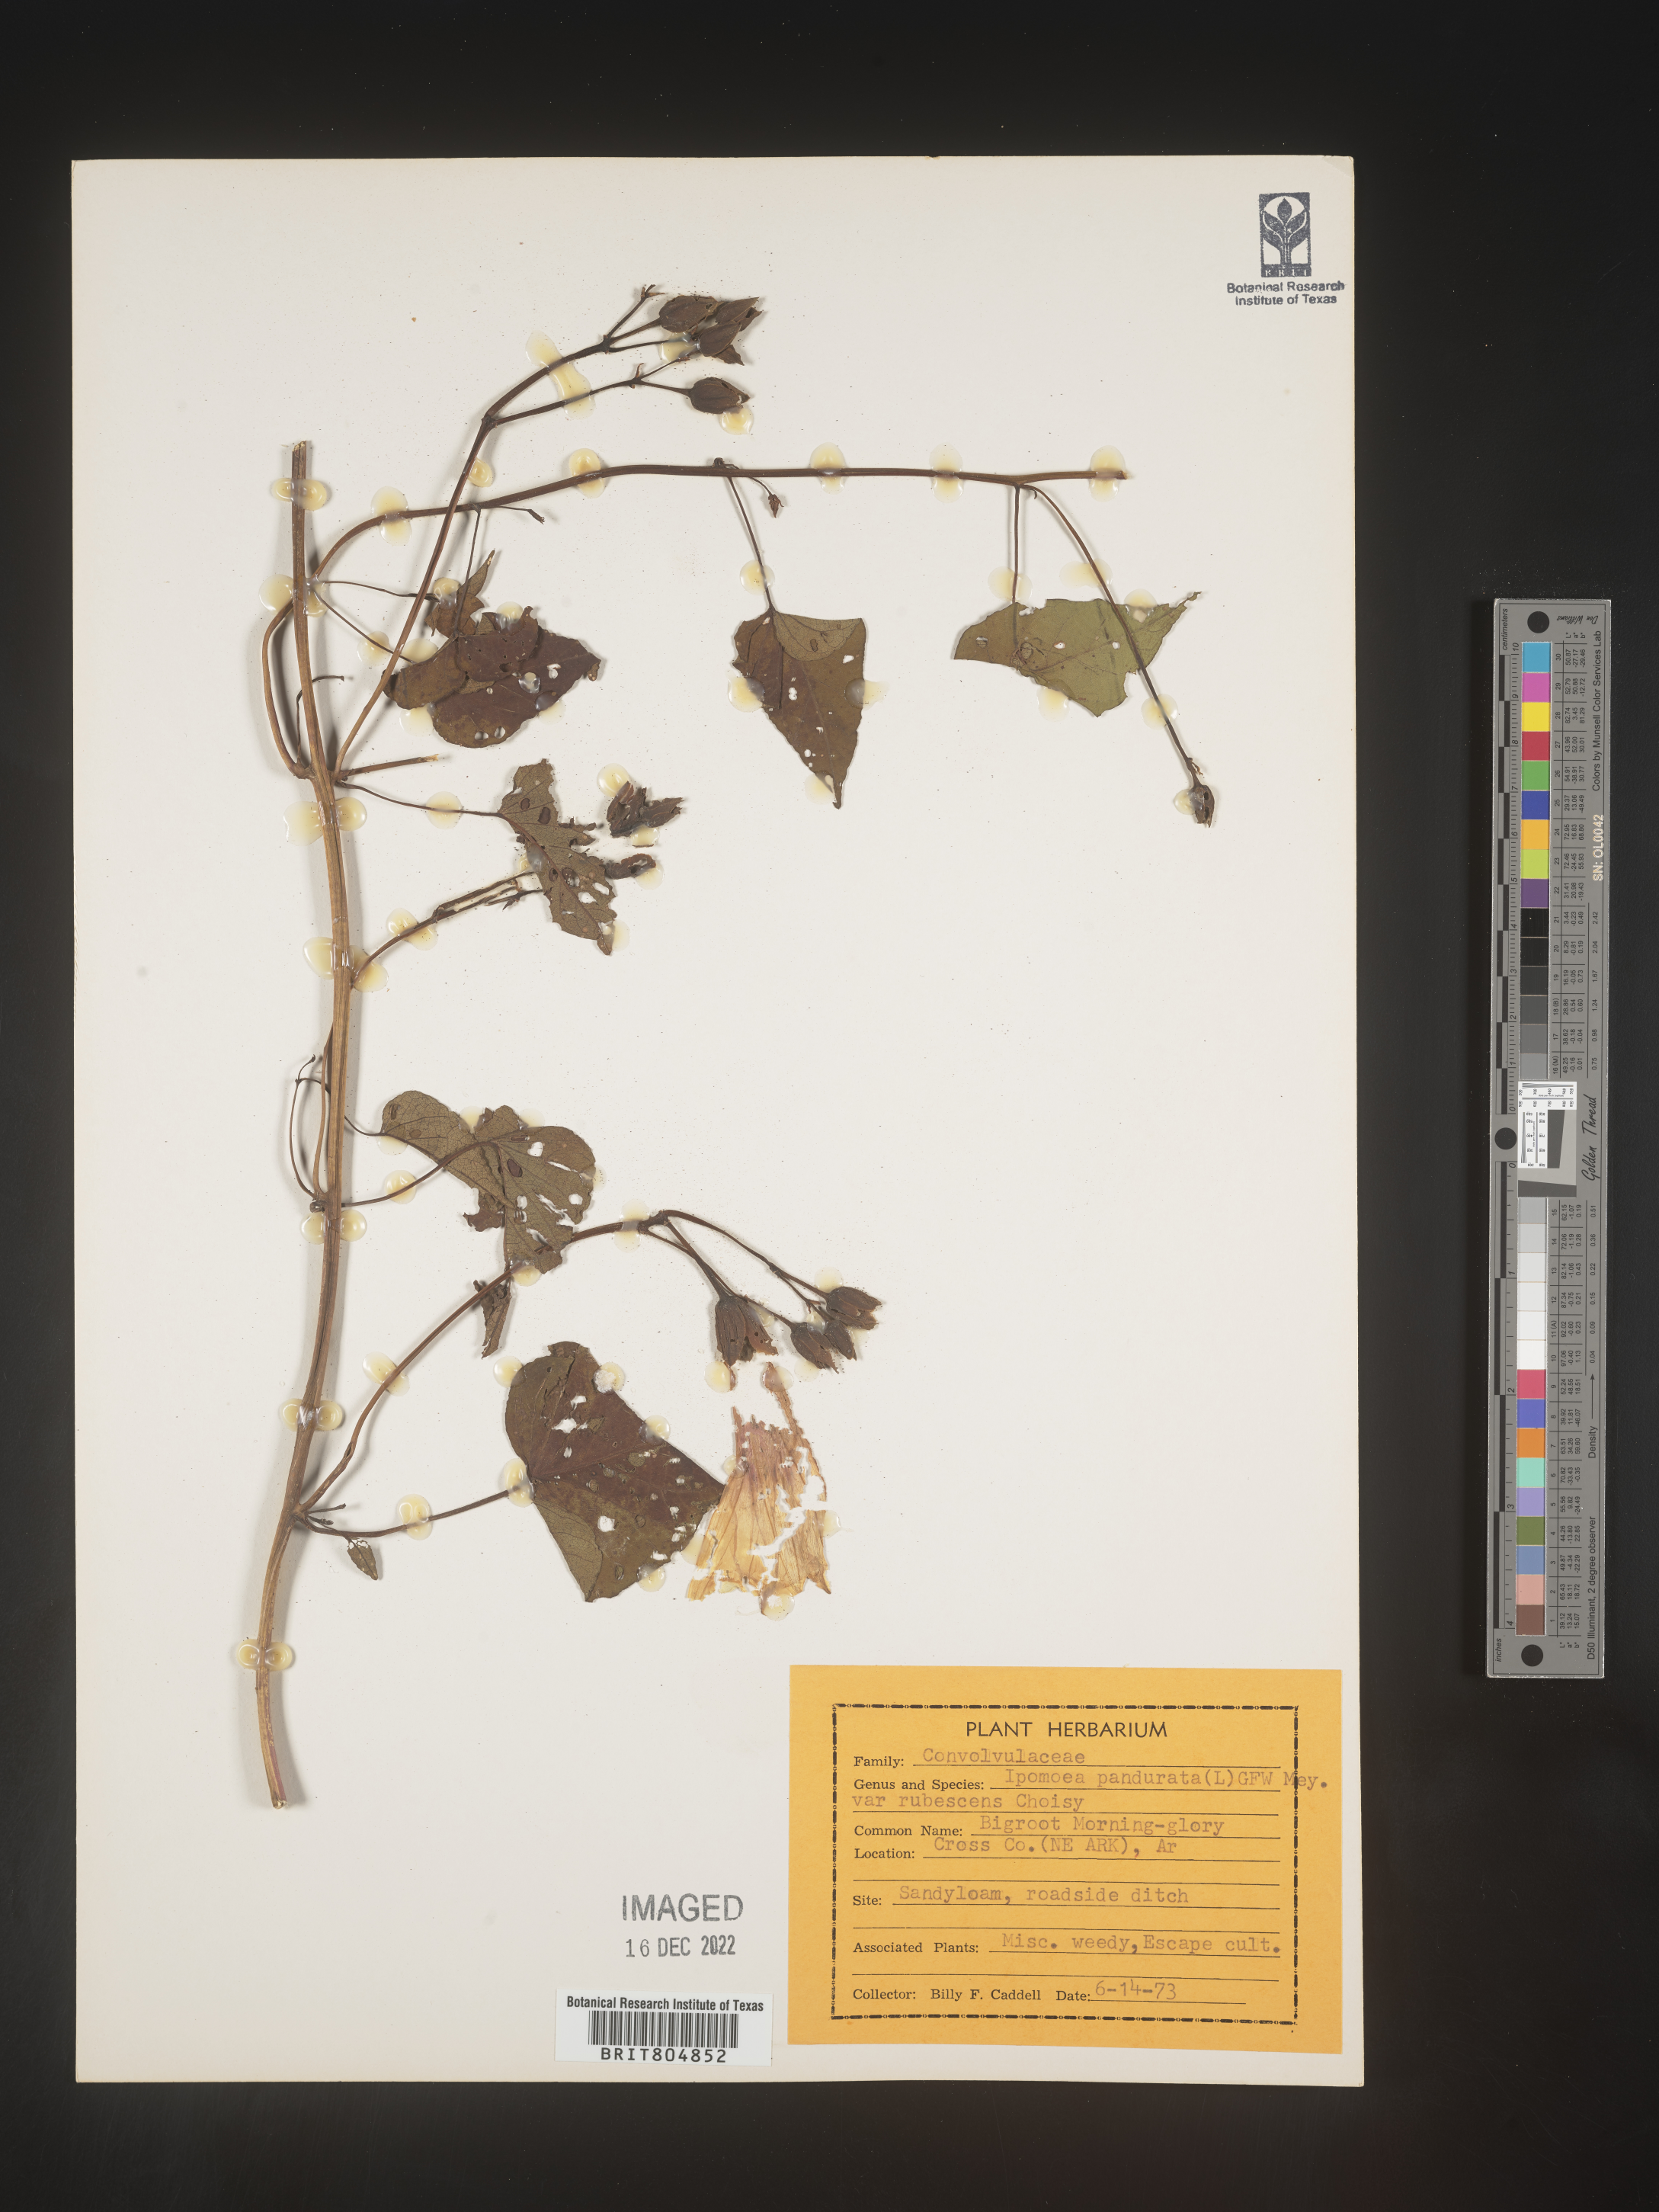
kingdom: Plantae
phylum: Tracheophyta
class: Magnoliopsida
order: Solanales
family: Convolvulaceae
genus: Ipomoea
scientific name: Ipomoea pandurata
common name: Man-of-the-earth
